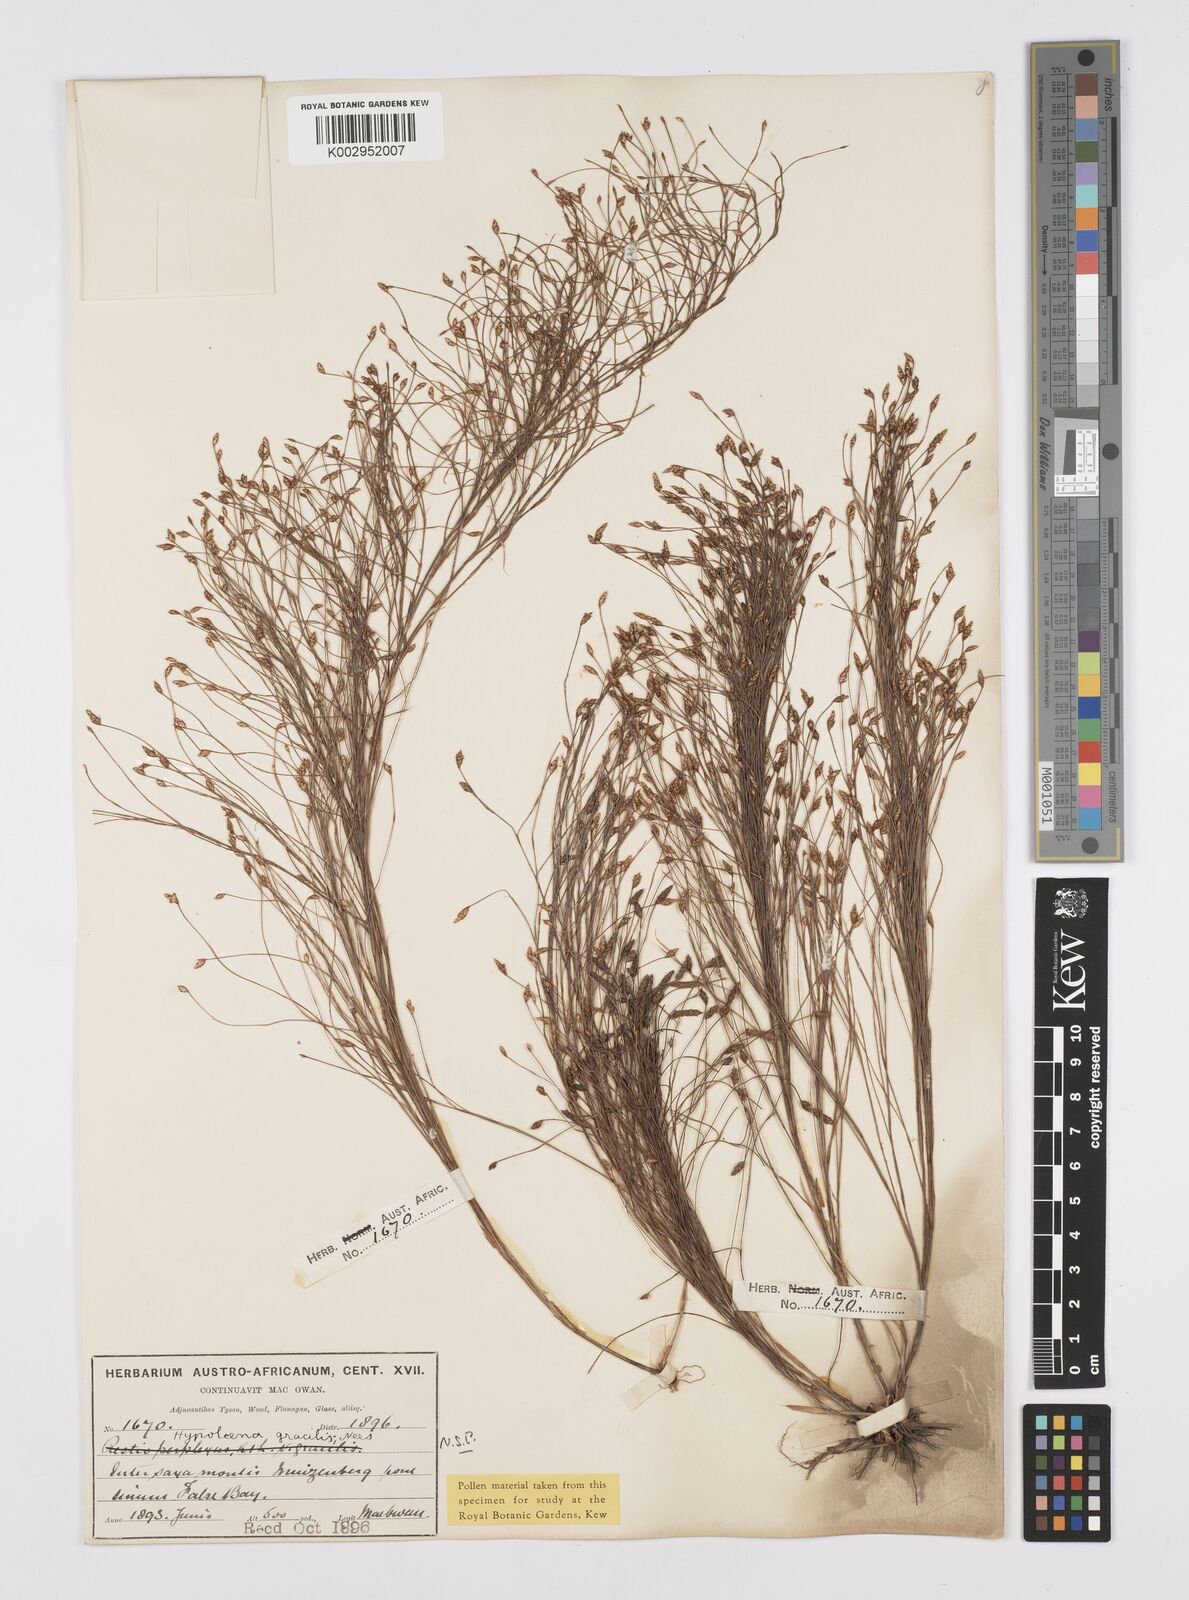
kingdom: Plantae
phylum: Tracheophyta
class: Liliopsida
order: Poales
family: Restionaceae
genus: Baloskion
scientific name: Baloskion gracile
